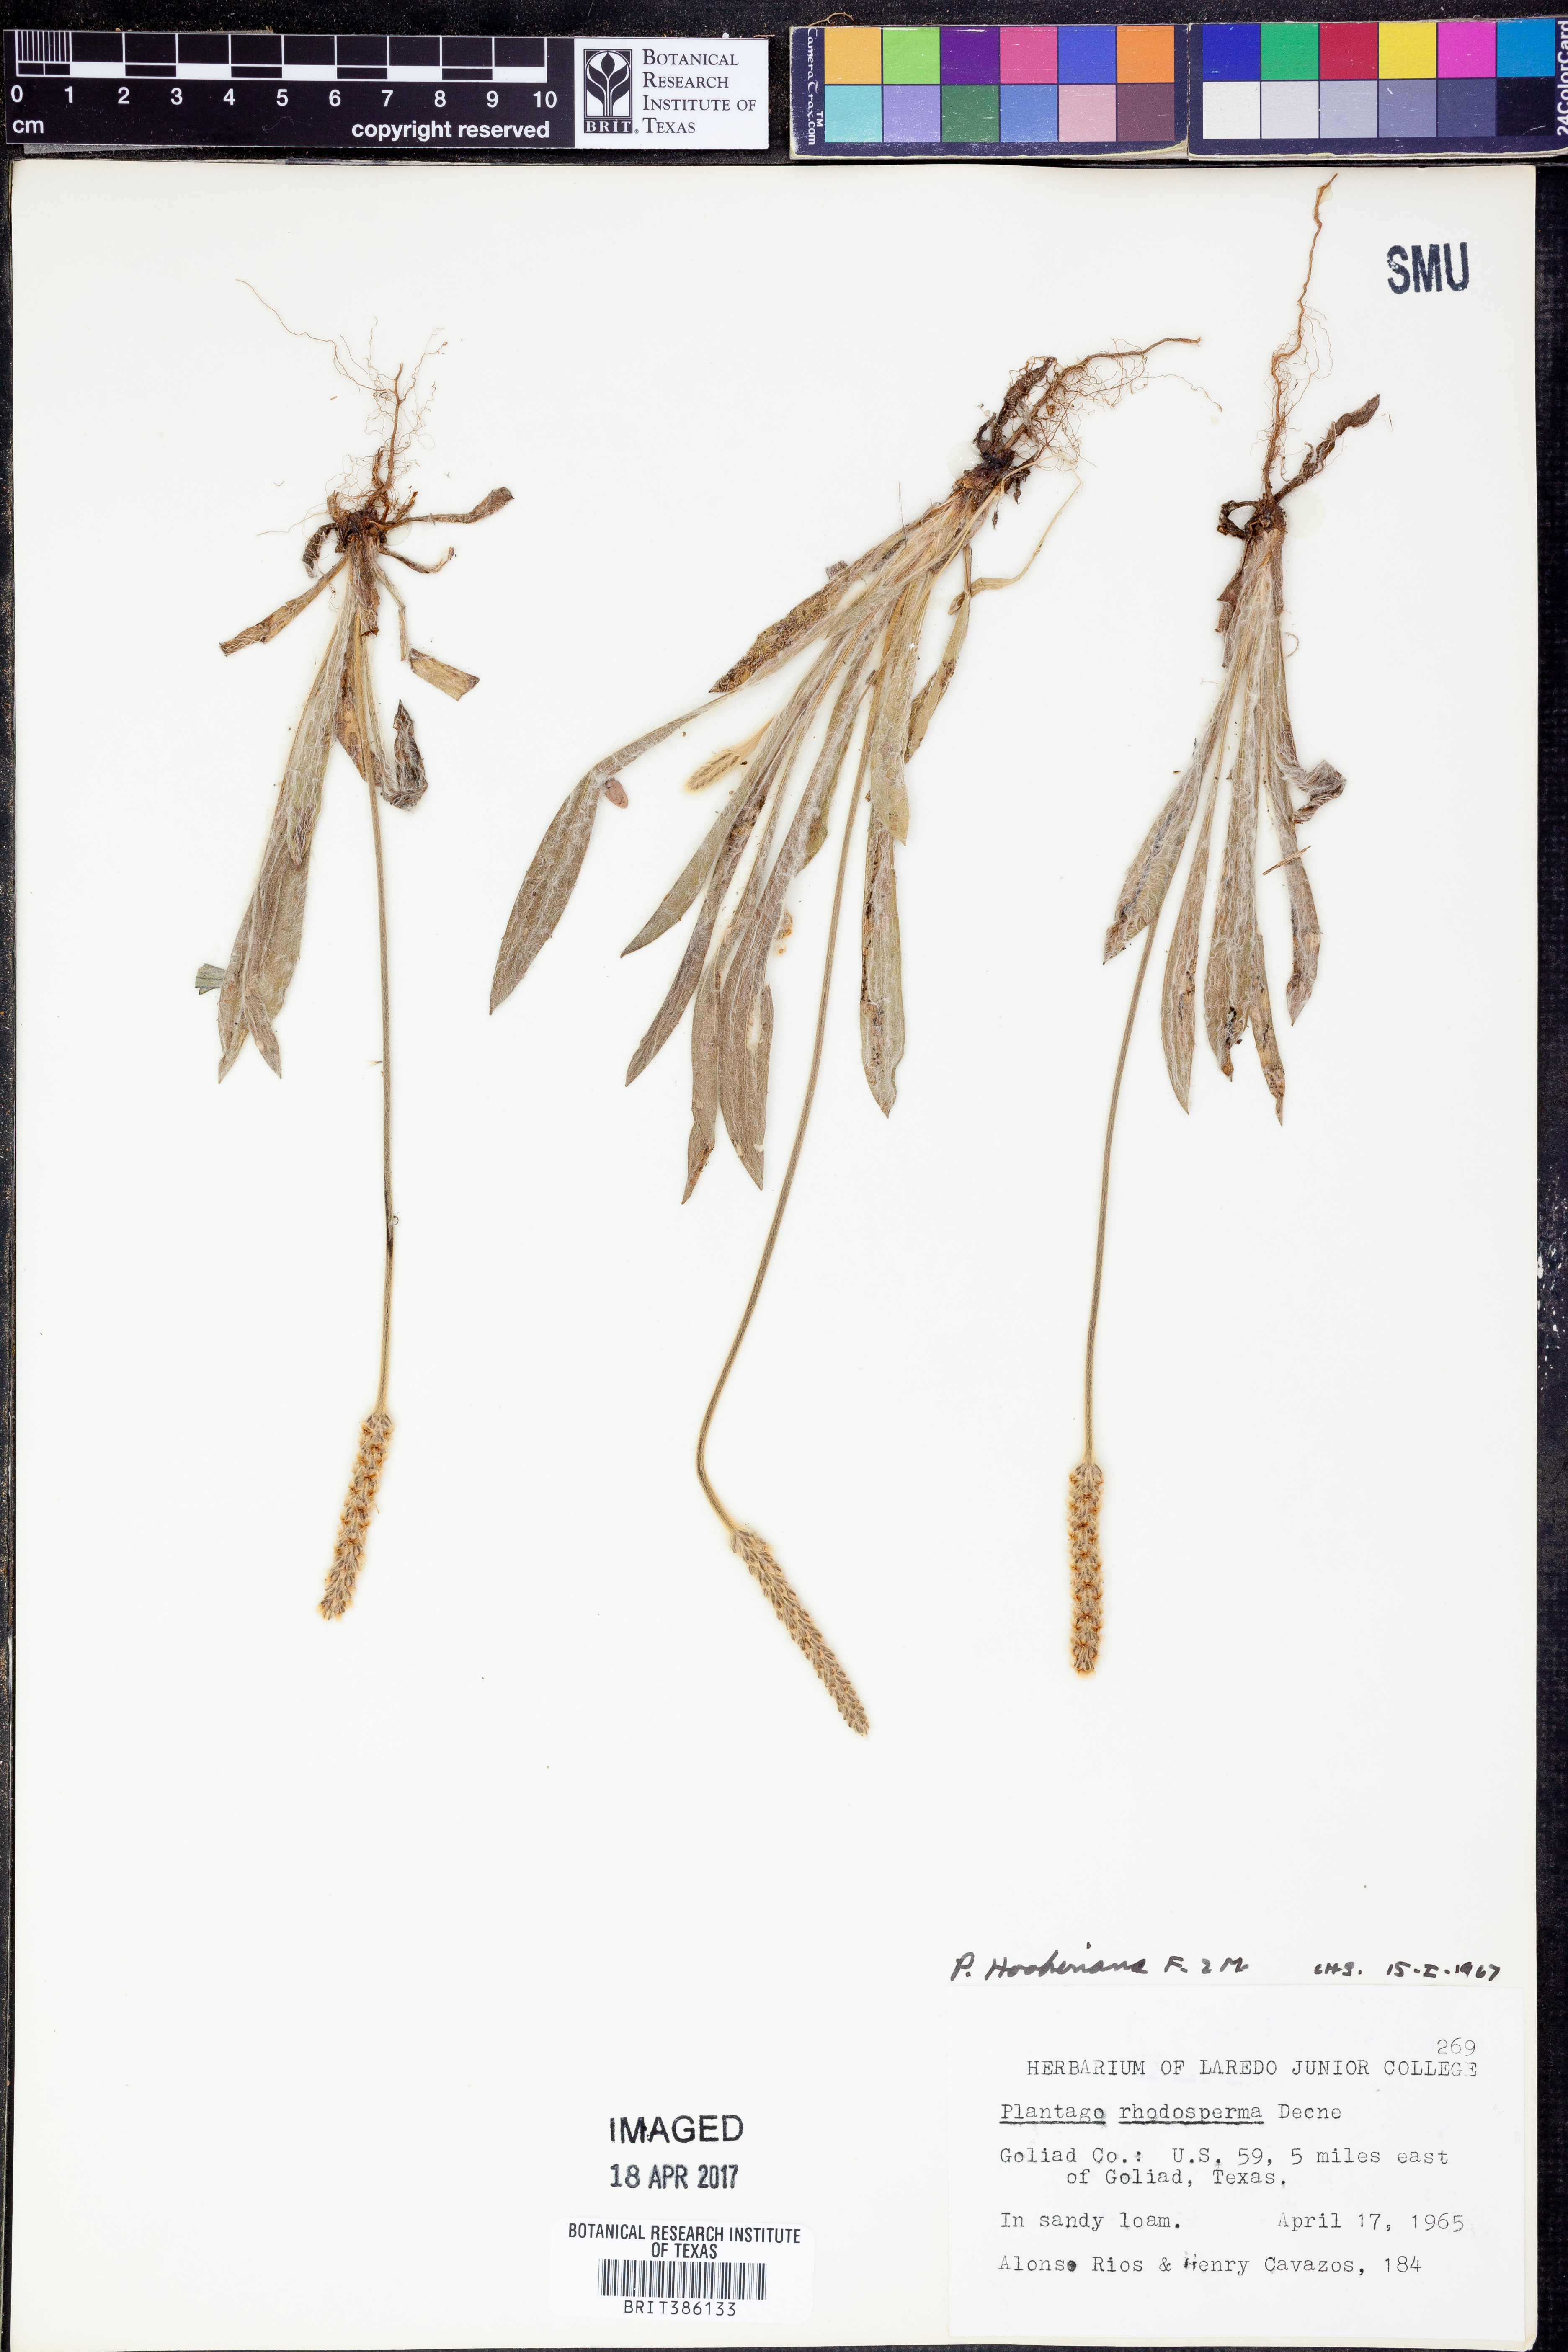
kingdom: Plantae
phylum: Tracheophyta
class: Magnoliopsida
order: Lamiales
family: Plantaginaceae
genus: Plantago
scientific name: Plantago hookeriana
